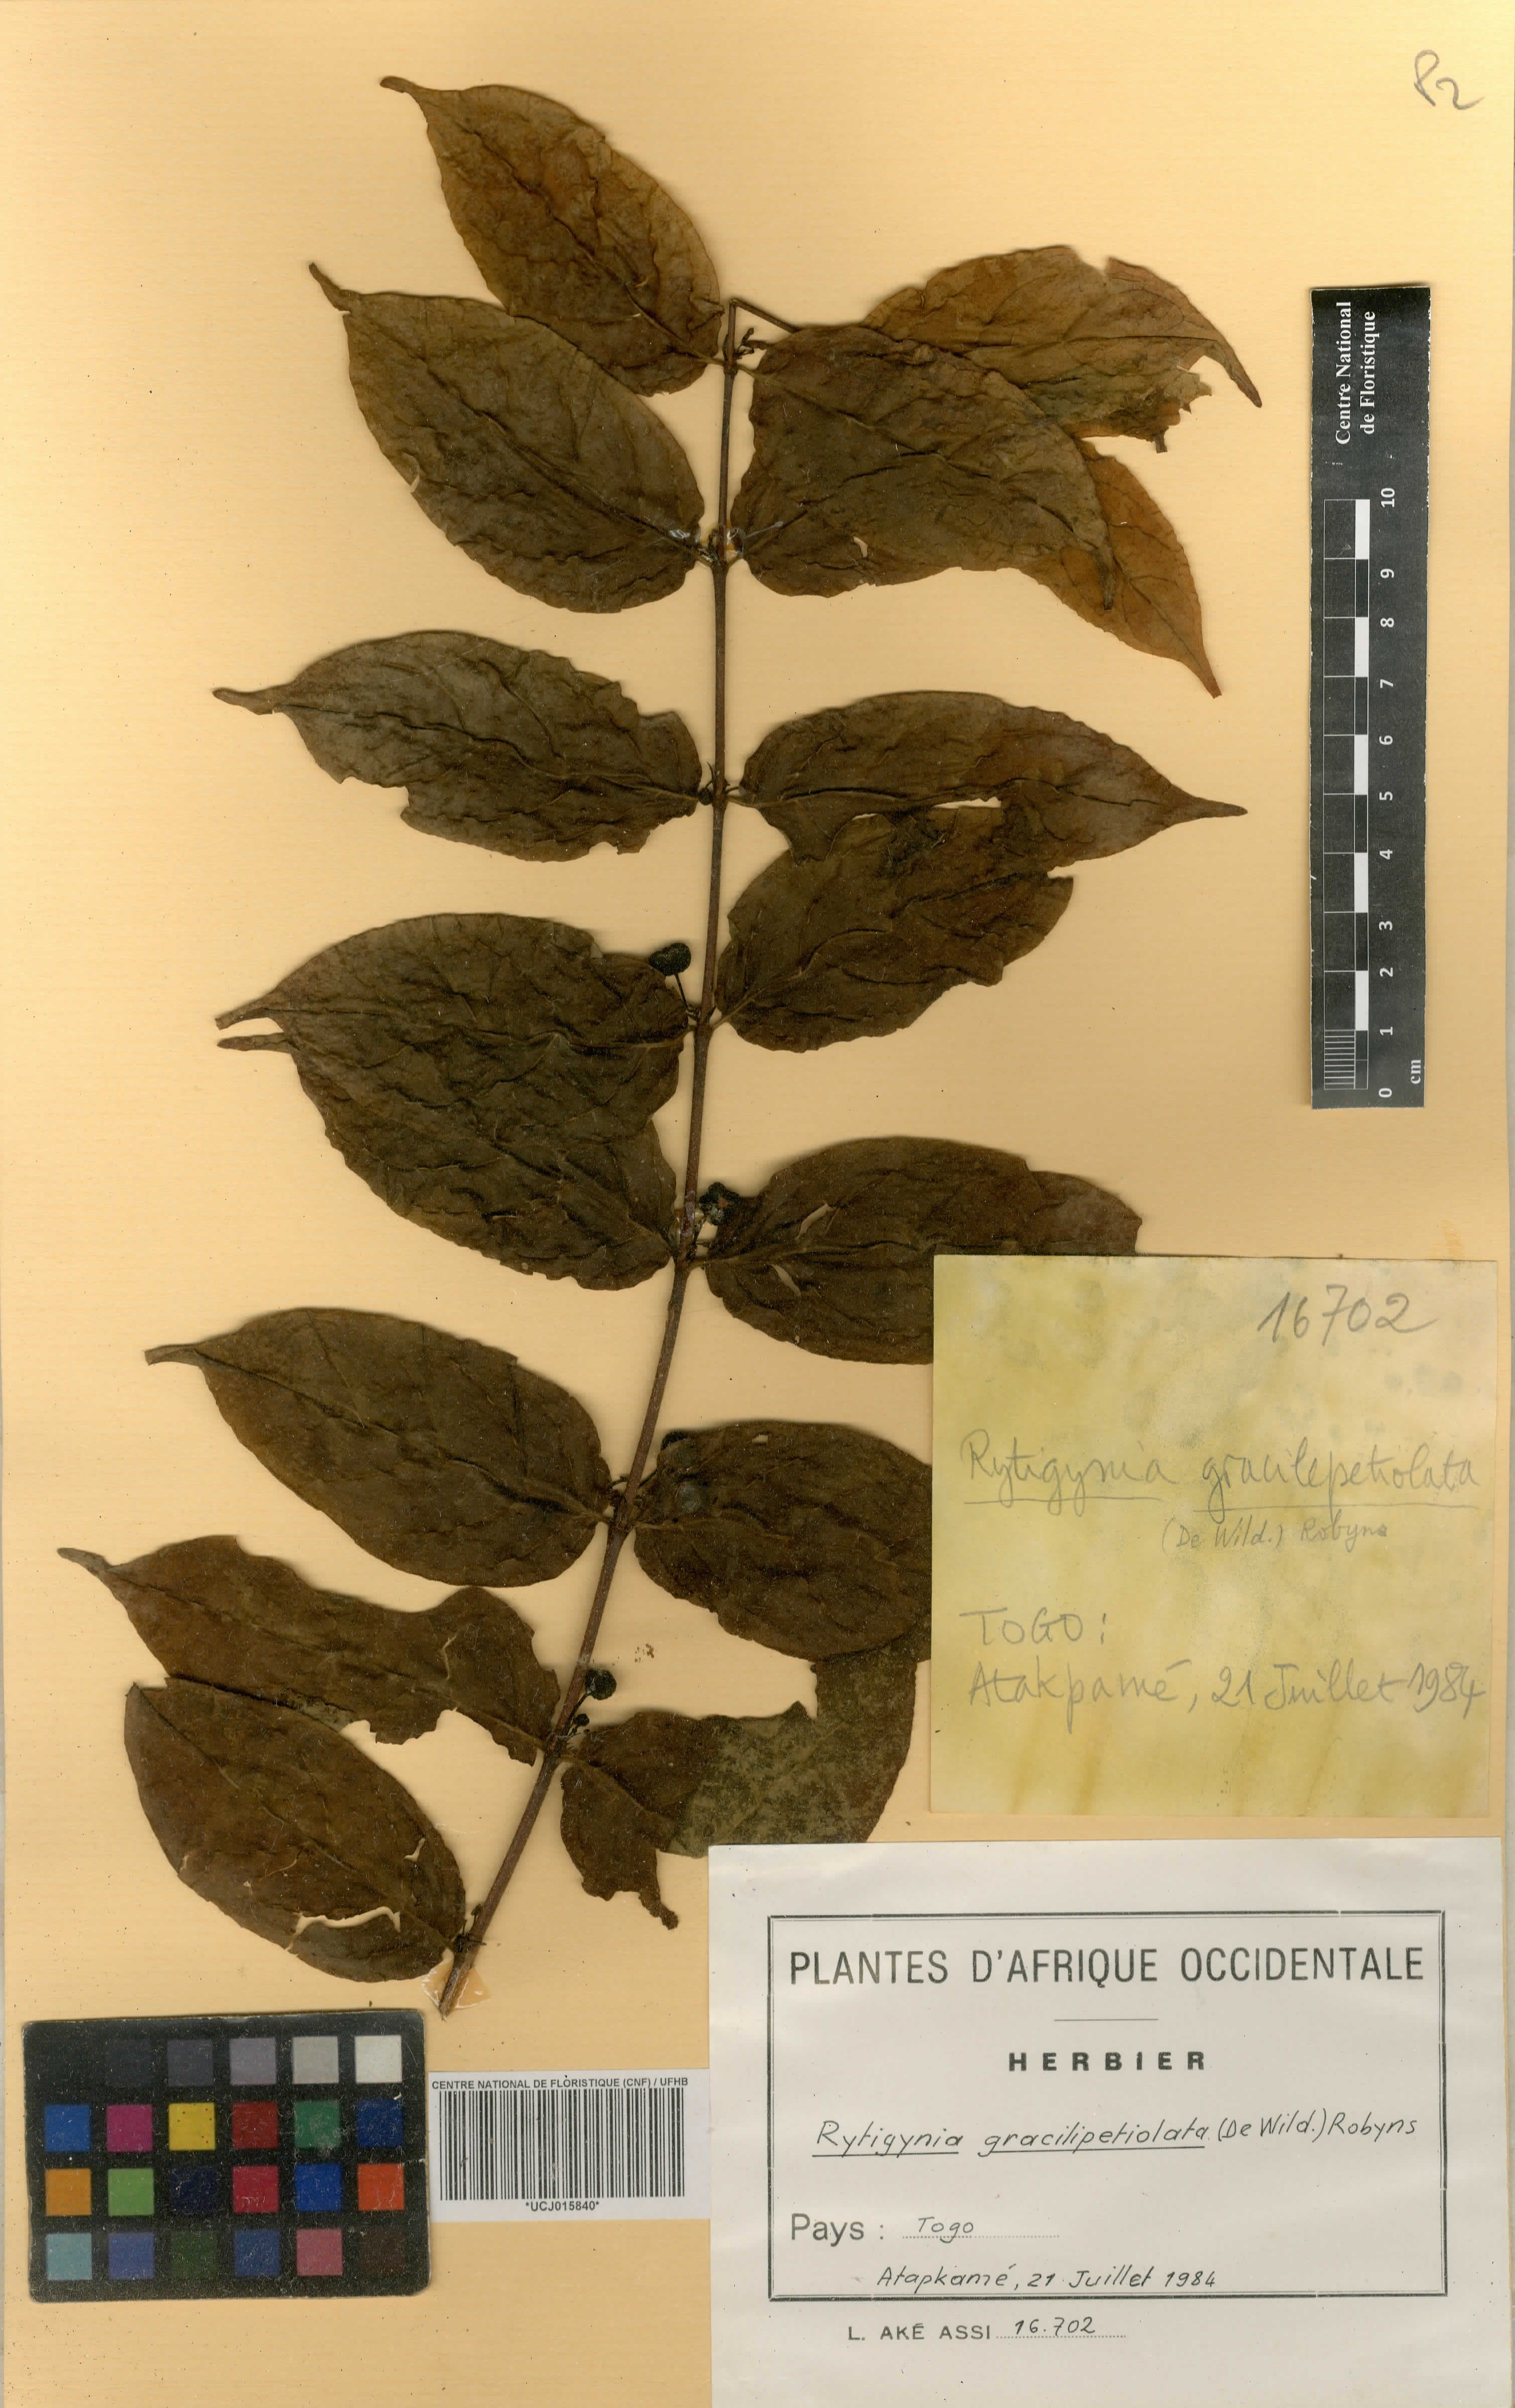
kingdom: Plantae
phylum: Tracheophyta
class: Magnoliopsida
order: Gentianales
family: Rubiaceae
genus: Rytigynia
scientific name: Rytigynia gracilipetiolata
